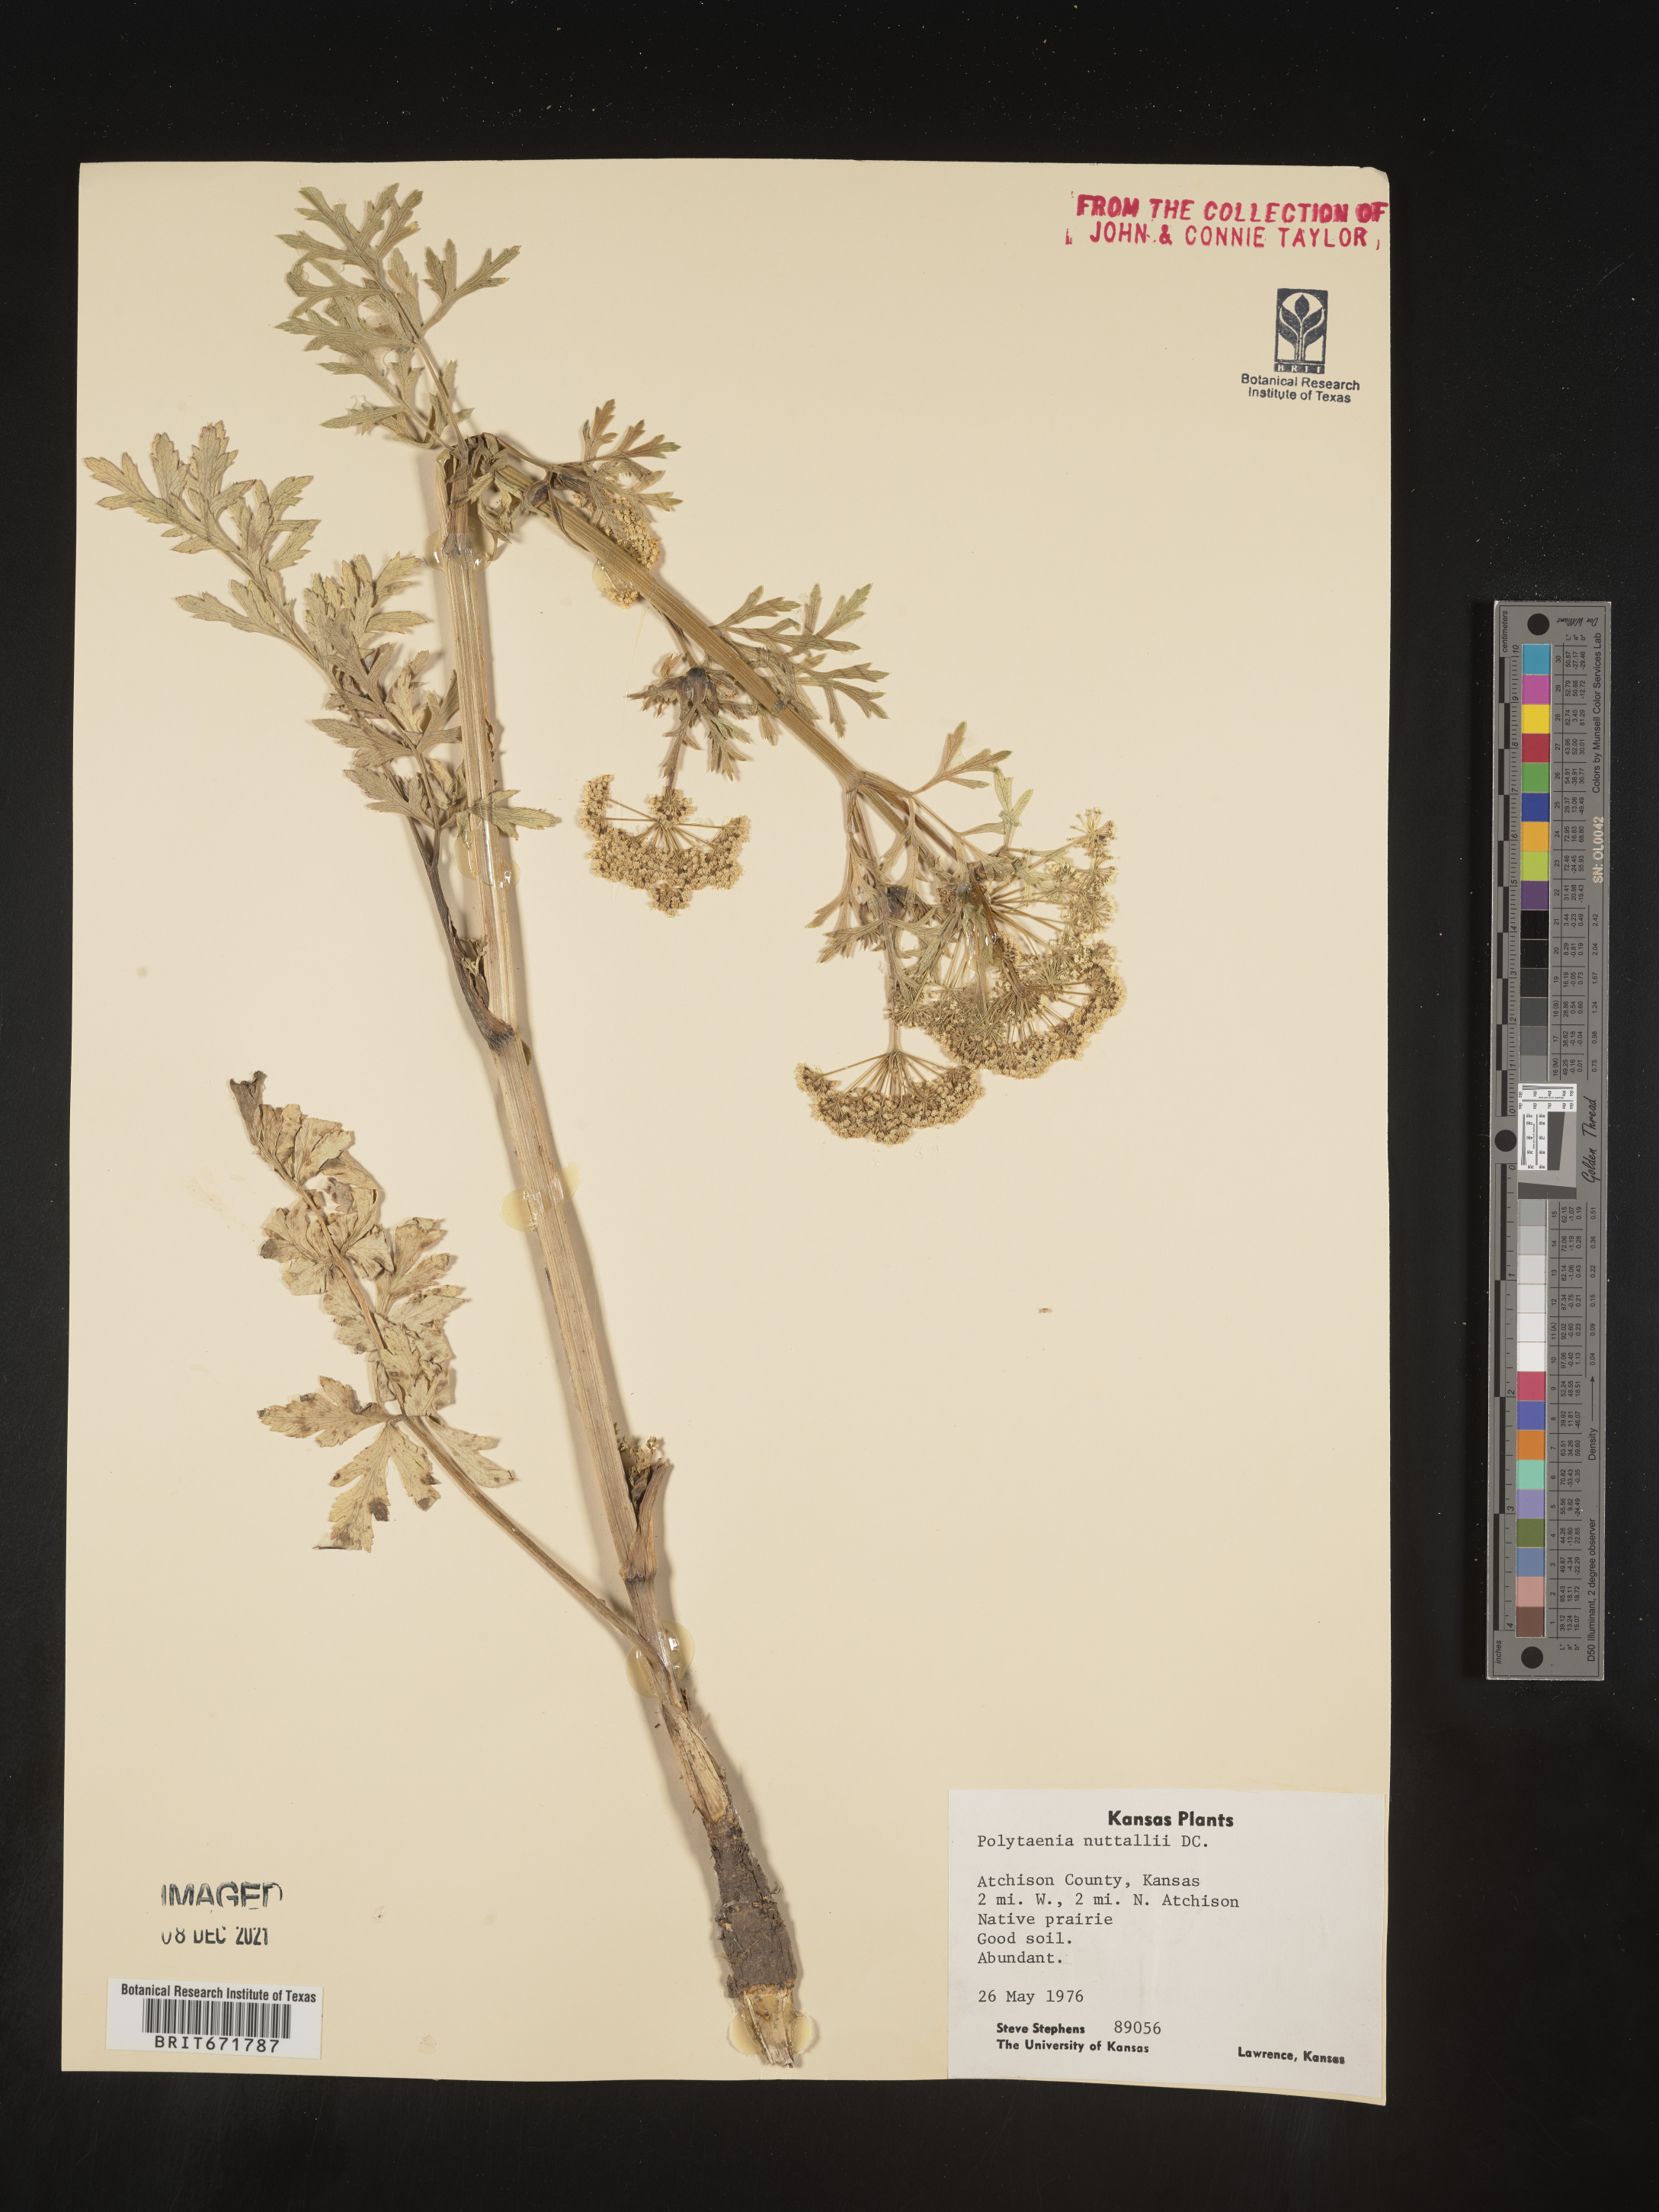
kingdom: Plantae
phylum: Tracheophyta
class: Magnoliopsida
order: Apiales
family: Apiaceae
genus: Polytaenia
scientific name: Polytaenia nuttallii
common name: Prairie-parsley
